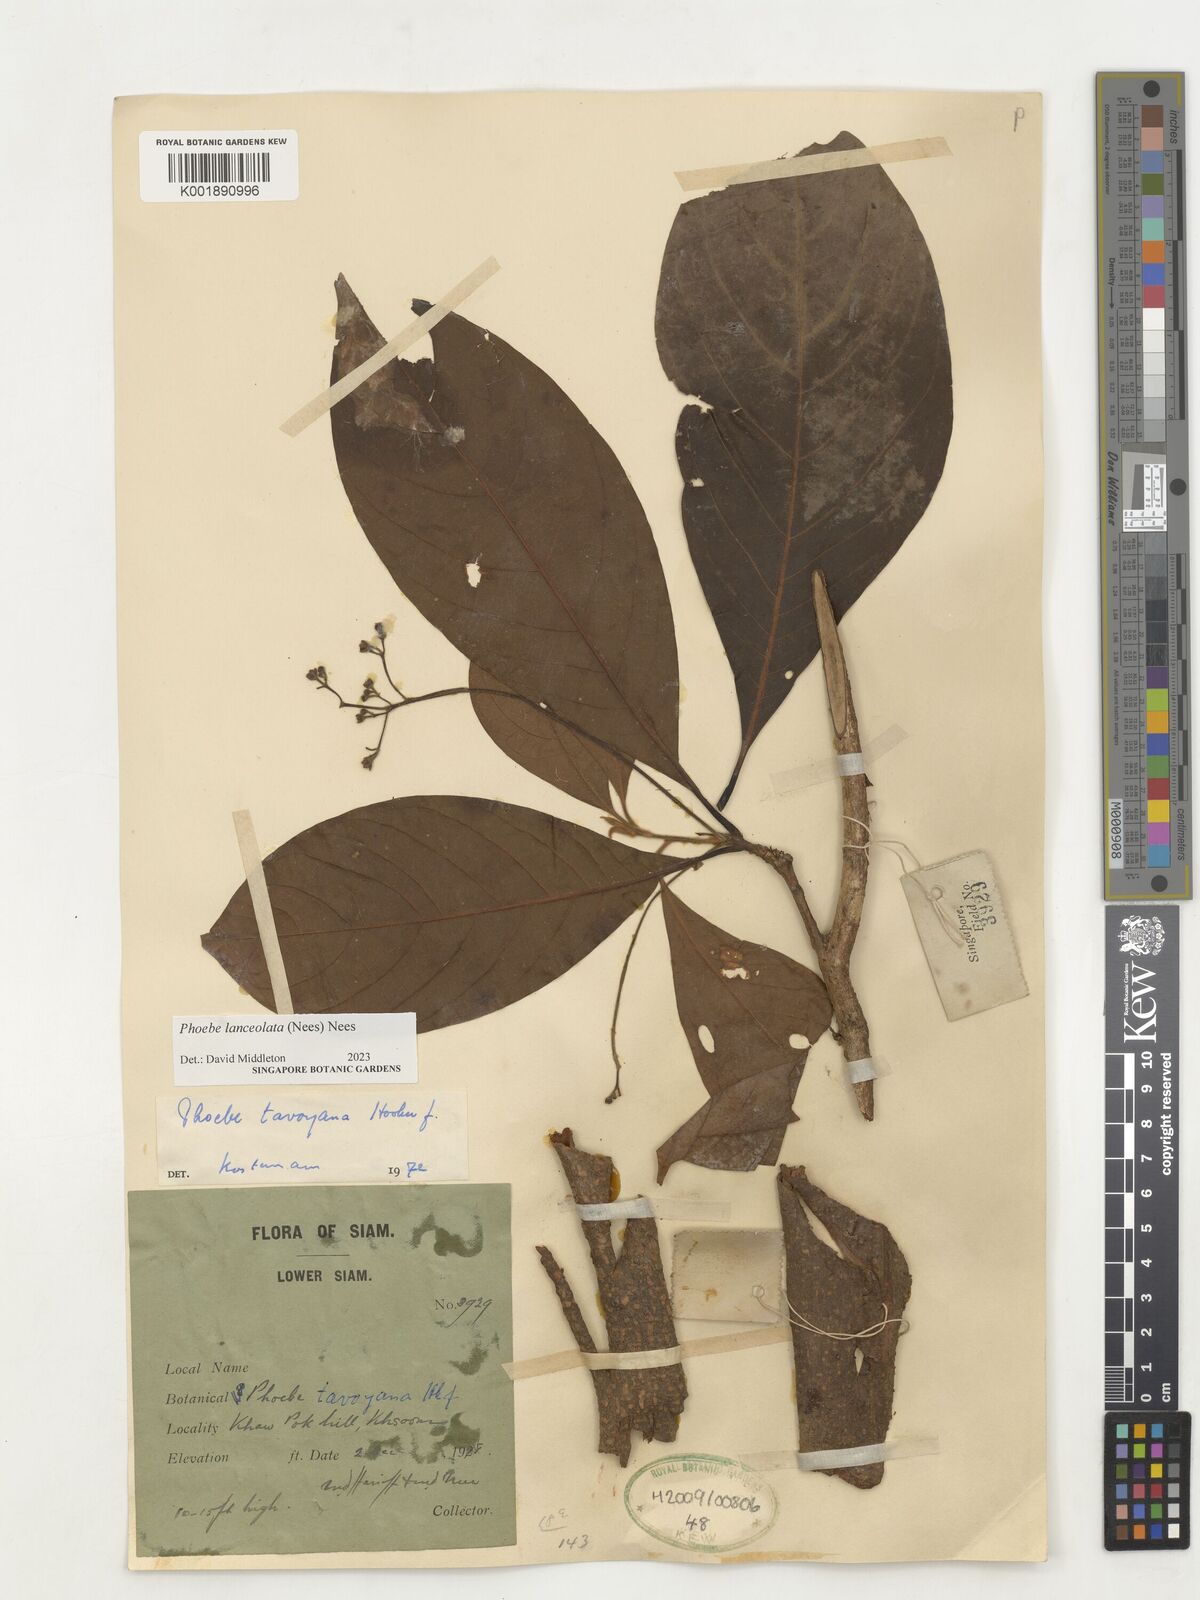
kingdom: Plantae
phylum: Tracheophyta
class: Magnoliopsida
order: Laurales
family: Lauraceae
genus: Phoebe
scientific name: Phoebe lanceolata
